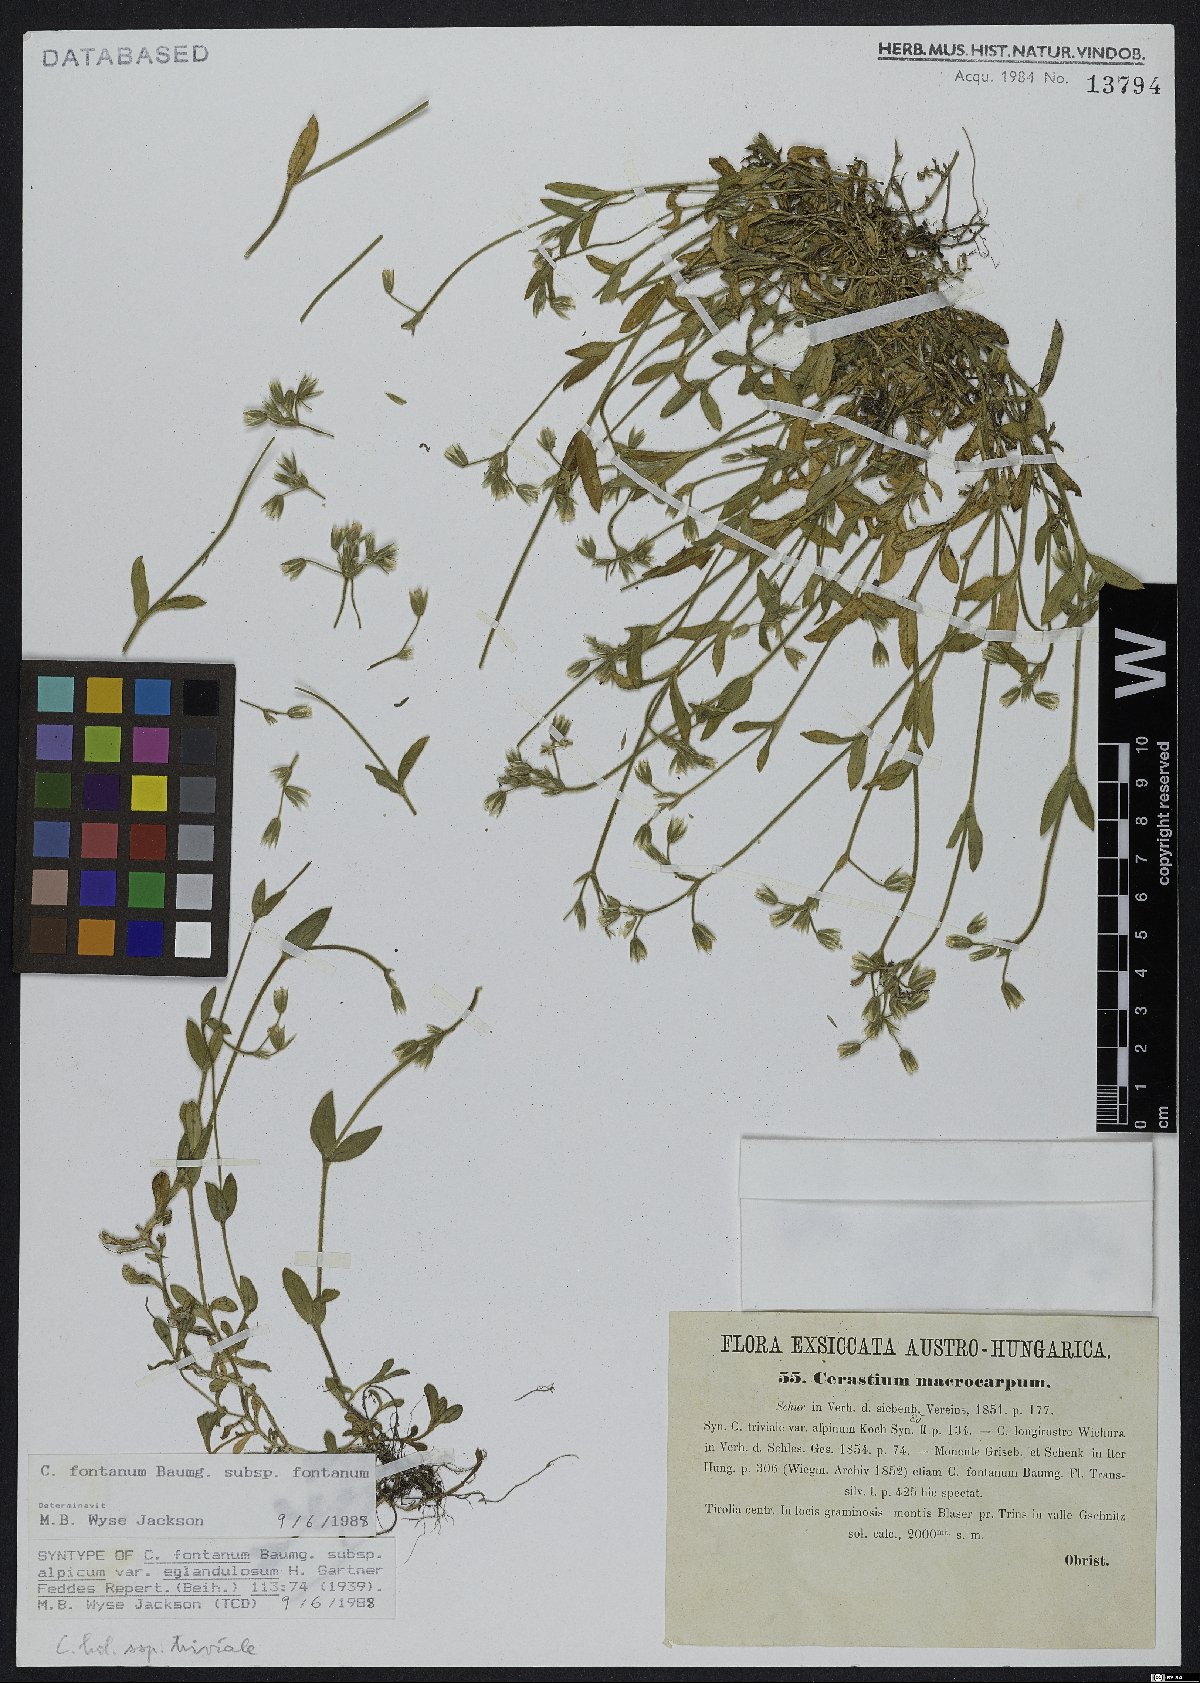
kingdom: Plantae
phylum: Tracheophyta
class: Magnoliopsida
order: Caryophyllales
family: Caryophyllaceae
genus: Cerastium
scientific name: Cerastium fontanum
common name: Common mouse-ear
